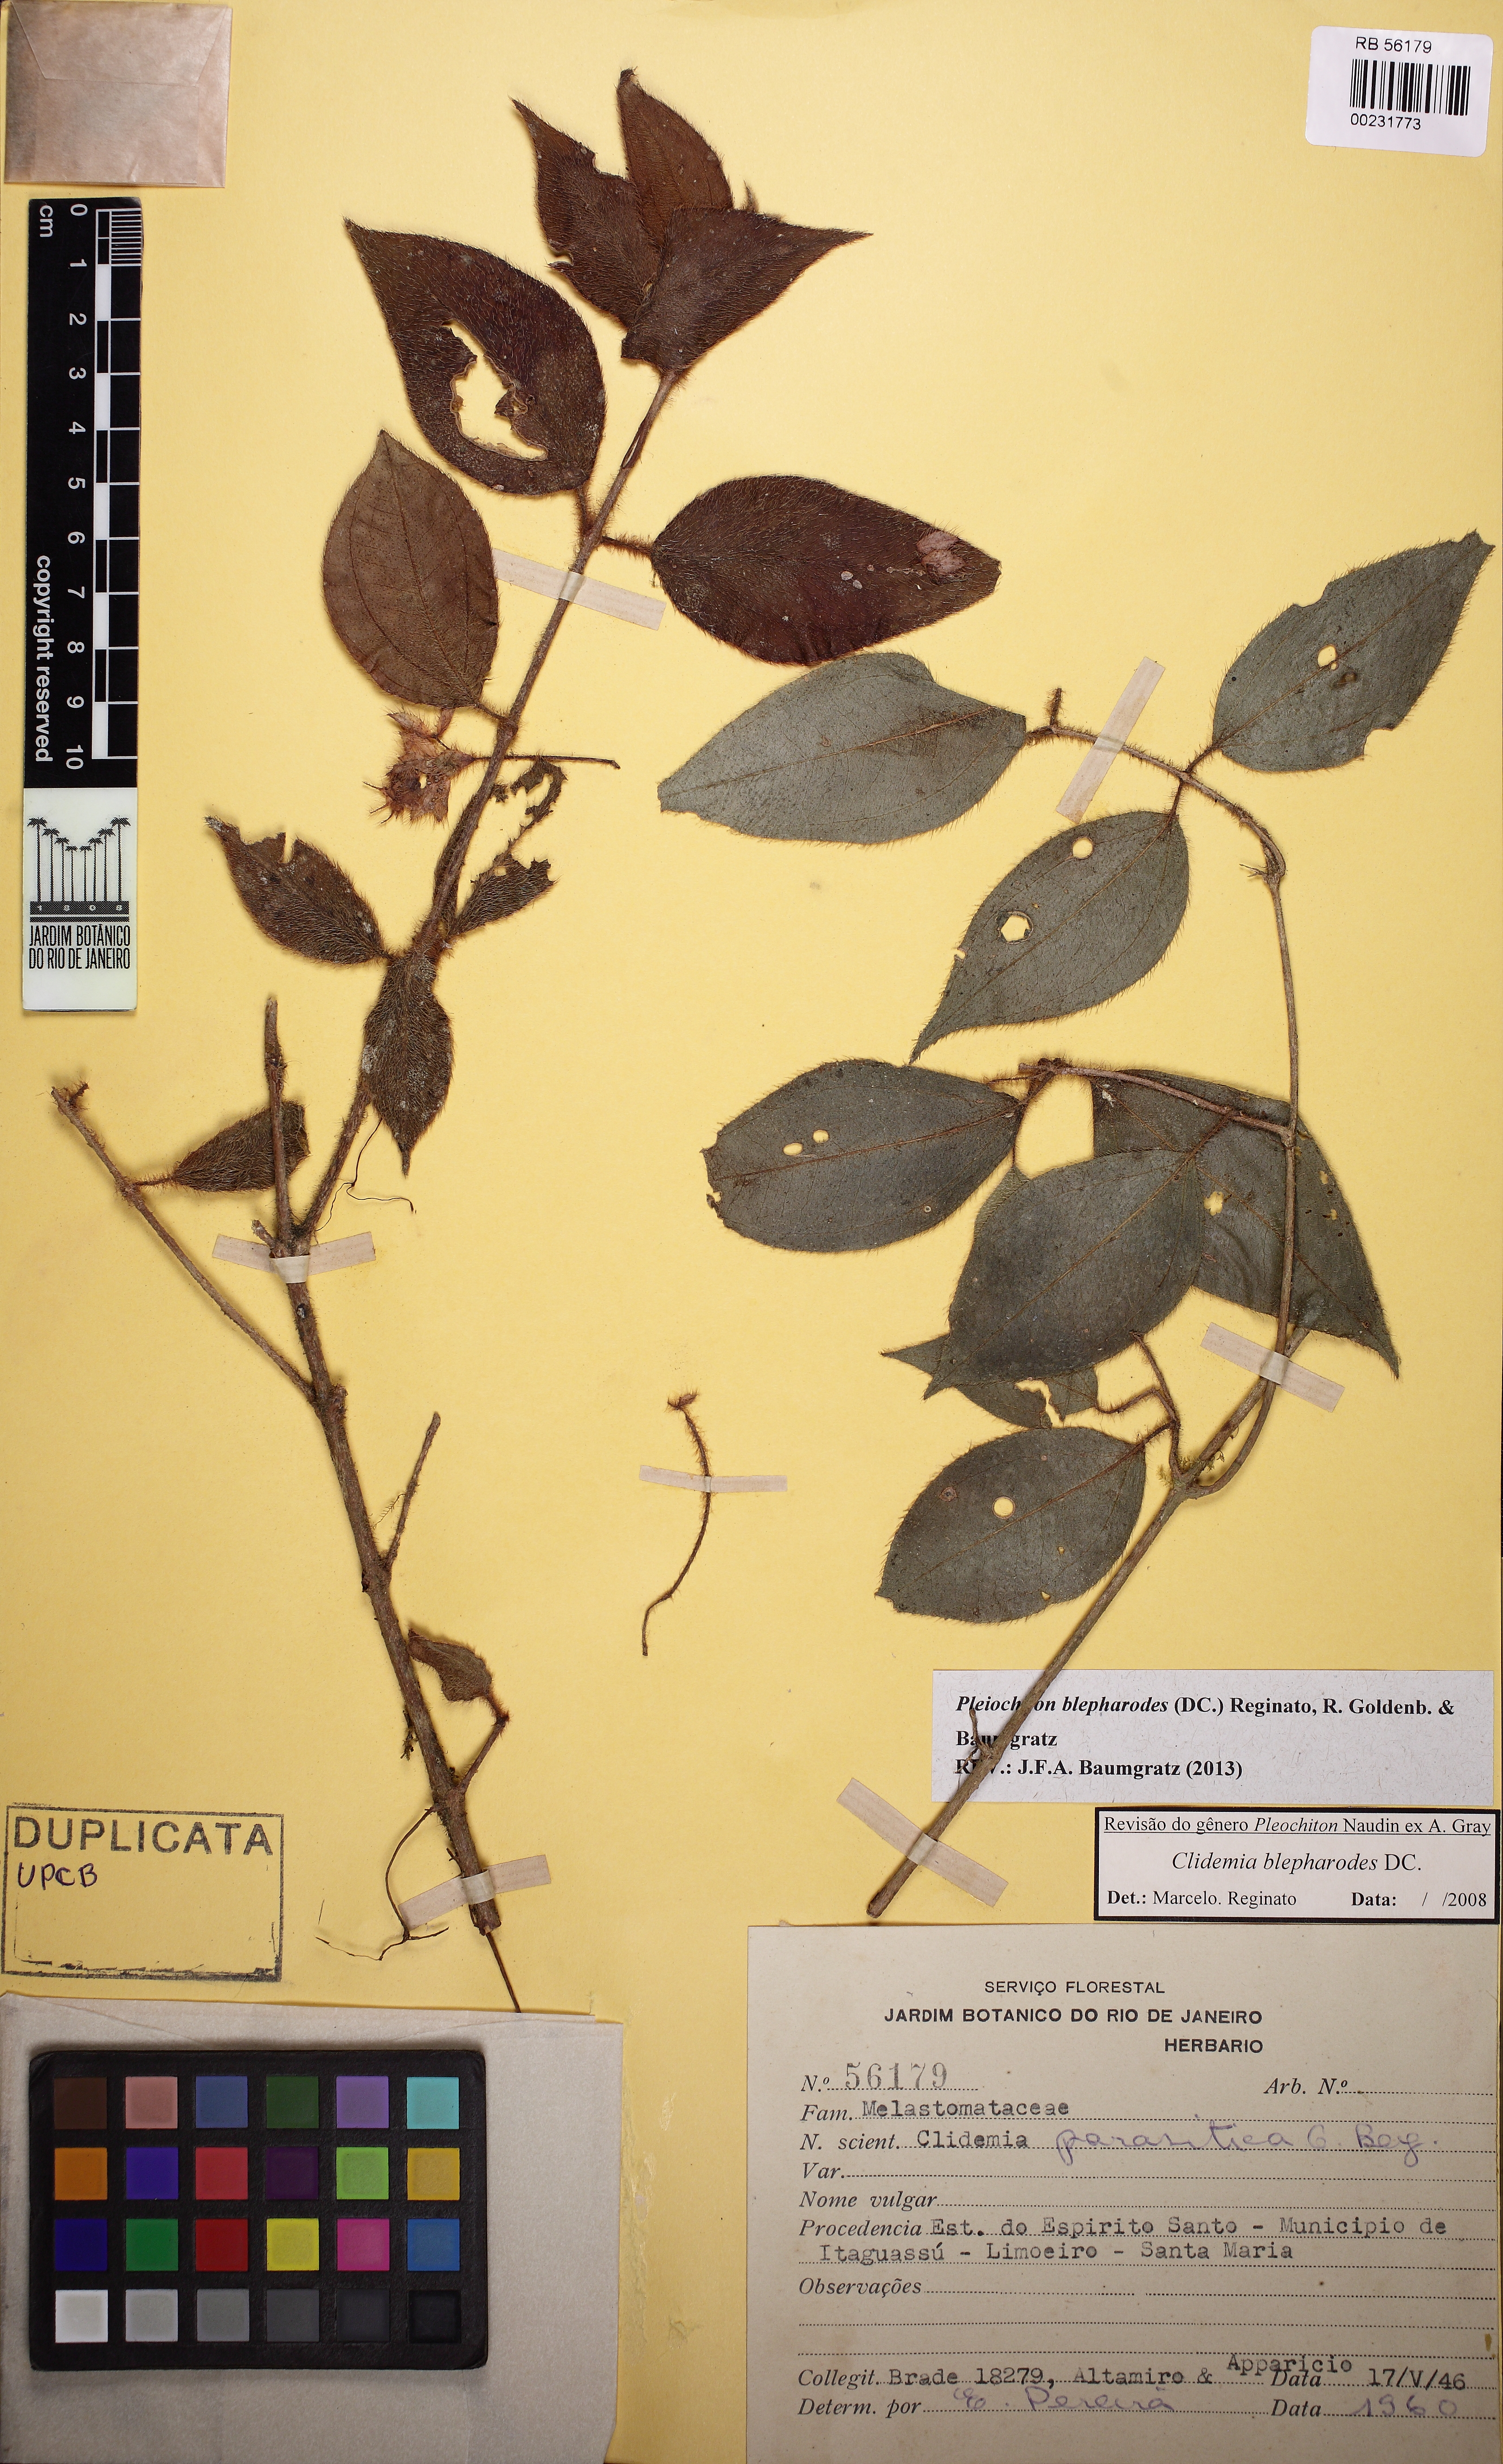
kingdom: Plantae
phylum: Tracheophyta
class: Magnoliopsida
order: Myrtales
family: Melastomataceae
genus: Miconia
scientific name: Miconia blepharodes
